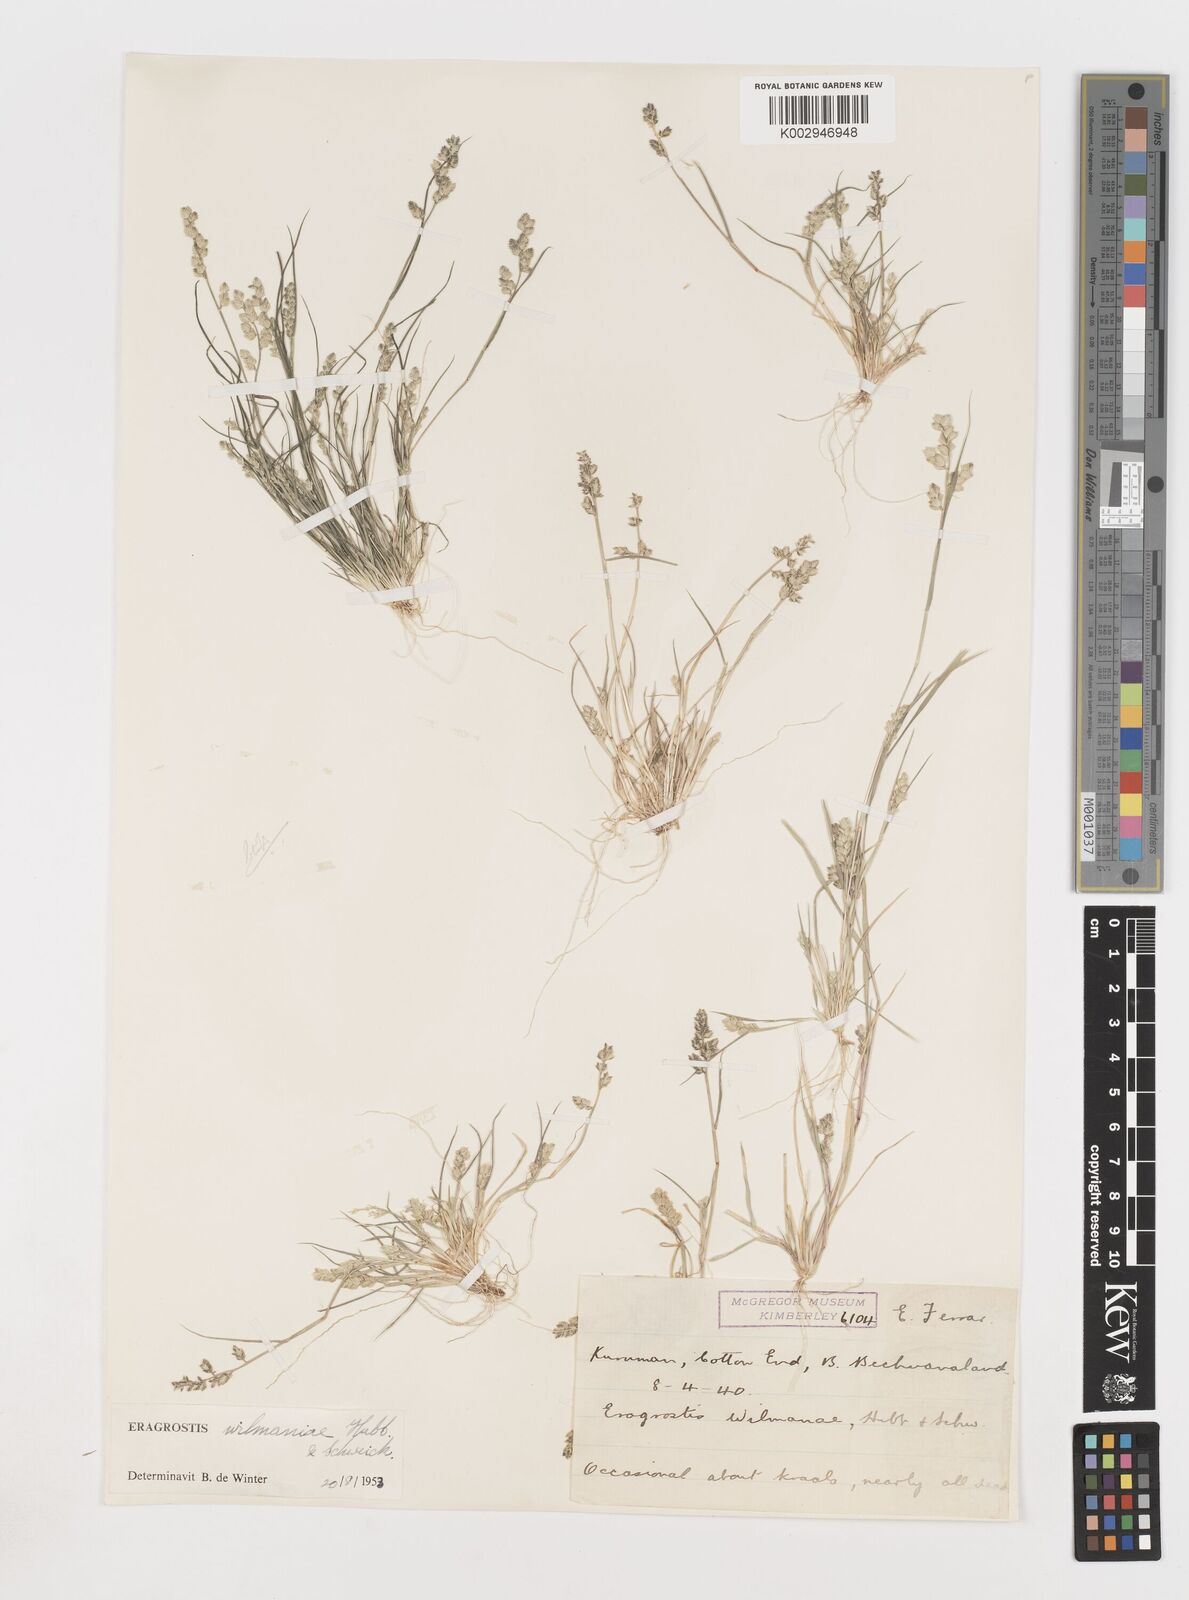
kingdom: Plantae
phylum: Tracheophyta
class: Liliopsida
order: Poales
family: Poaceae
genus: Eragrostis
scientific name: Eragrostis macrochlamys
